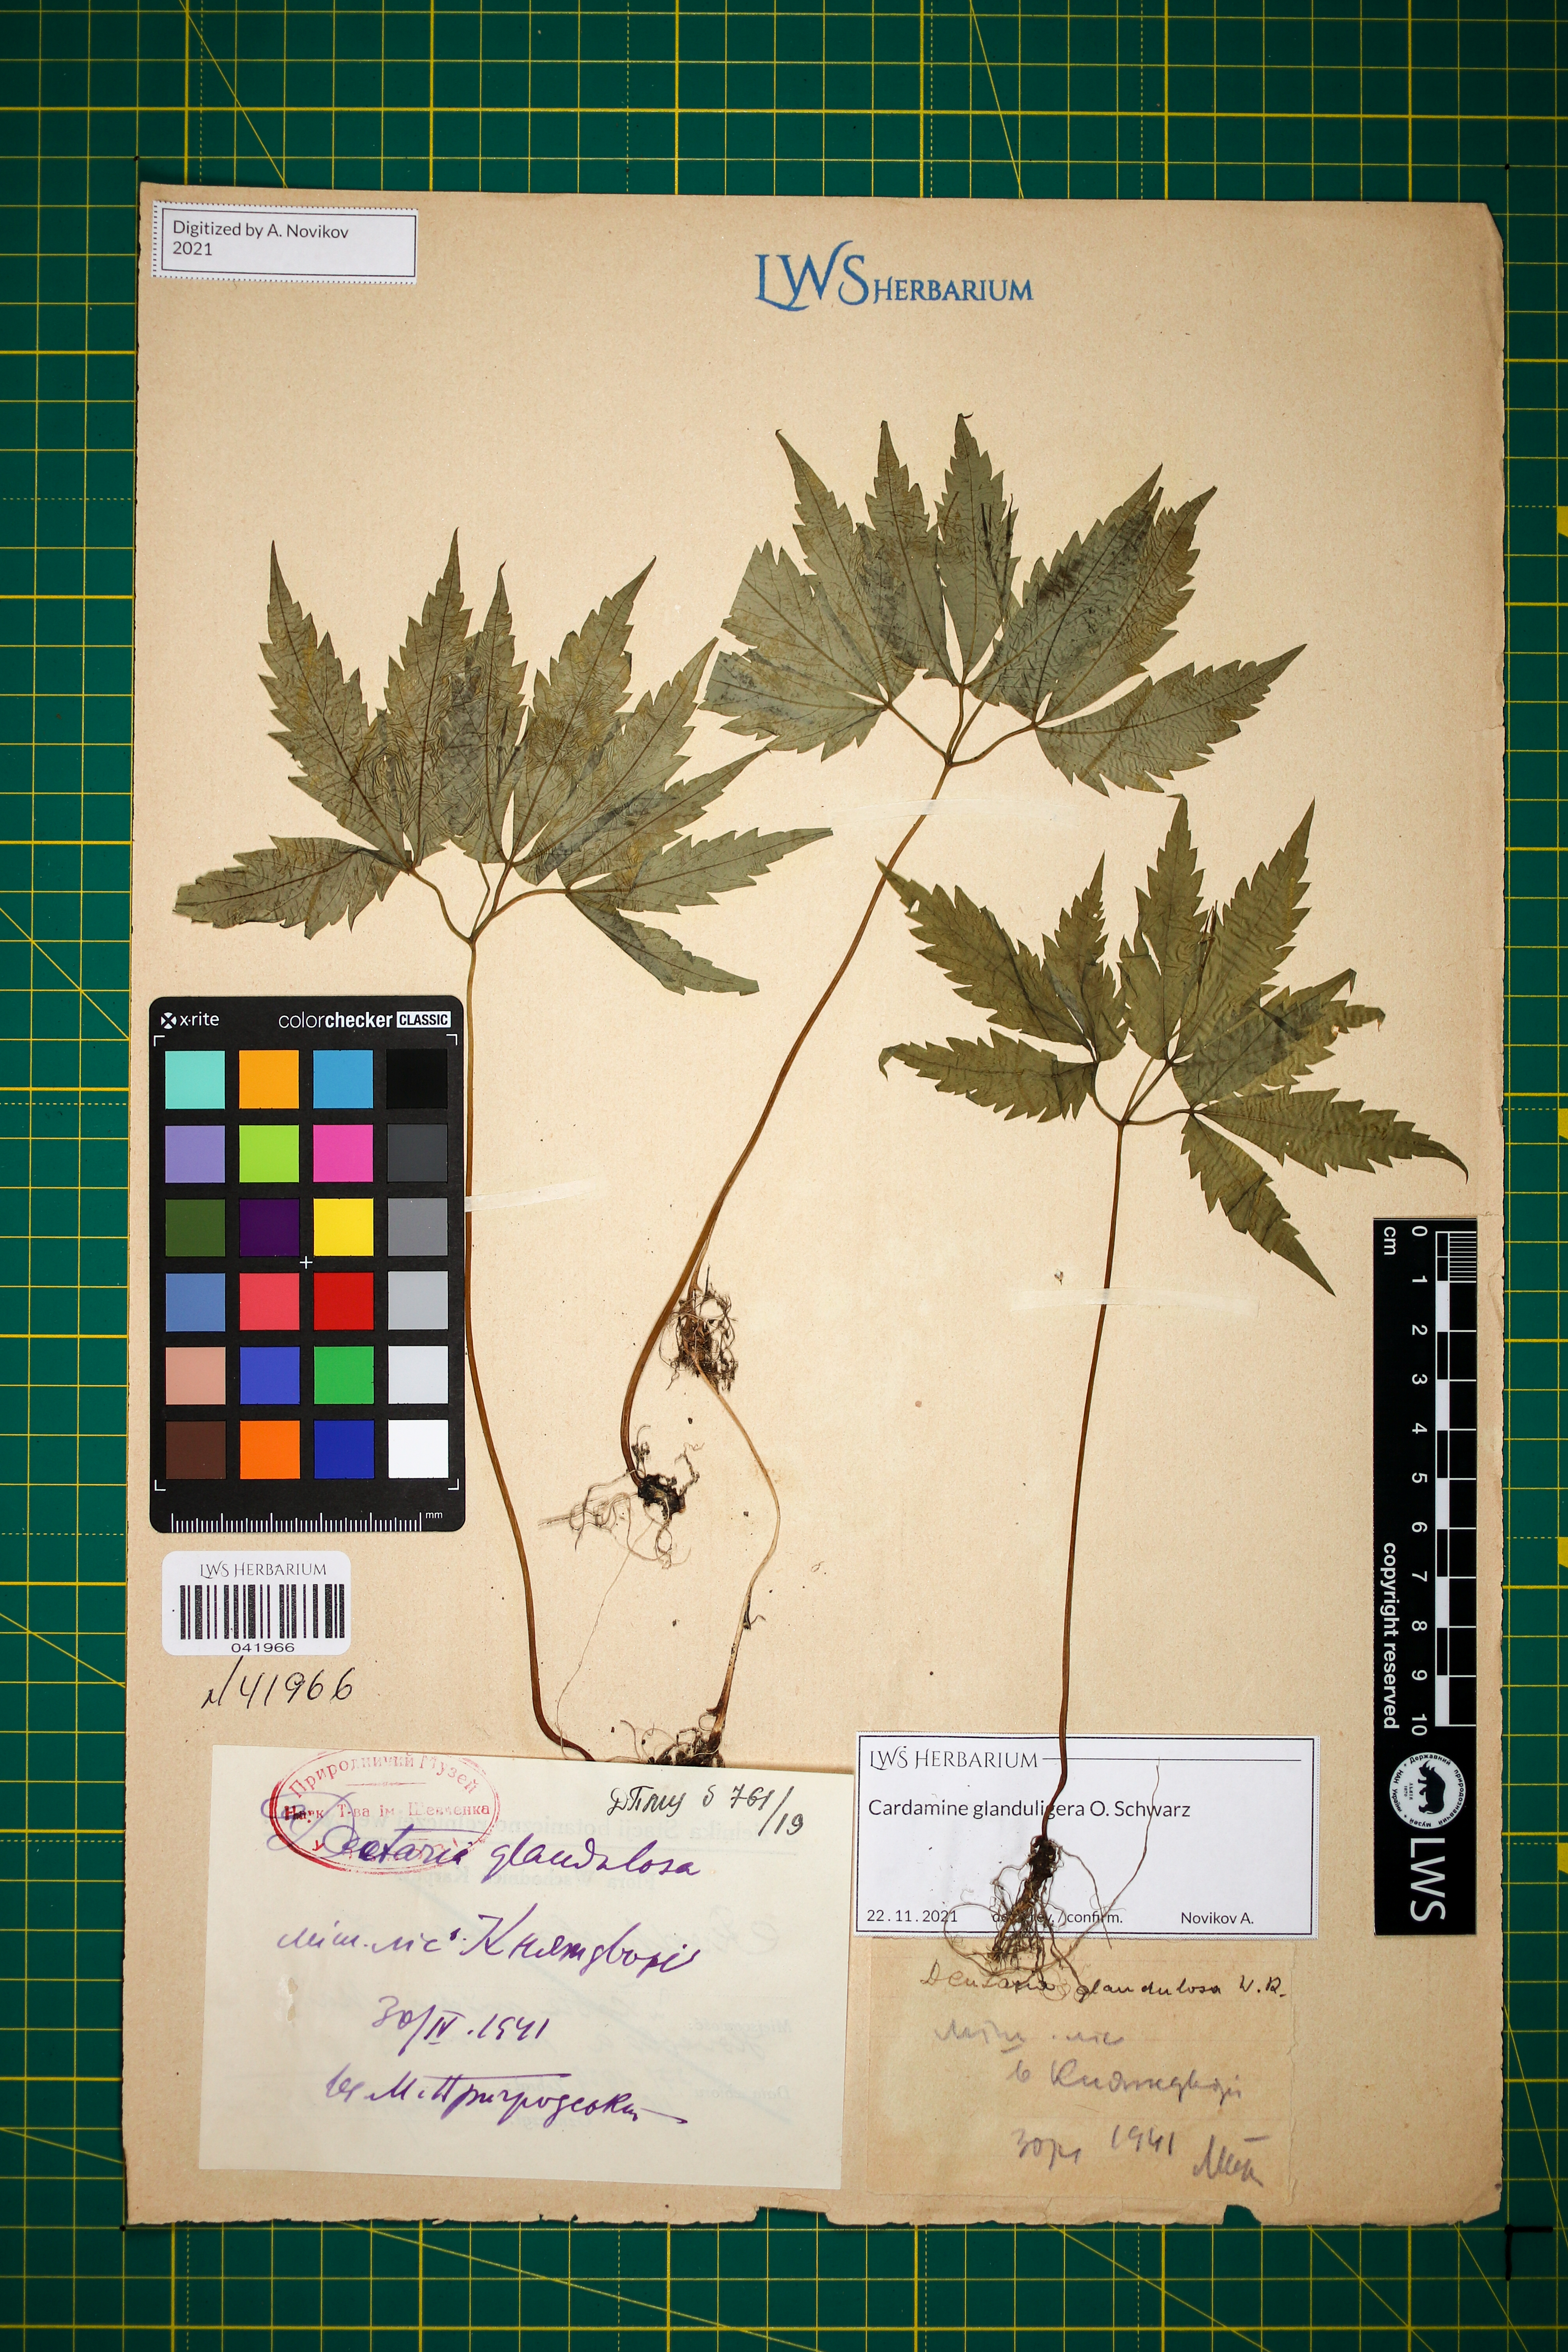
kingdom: Plantae
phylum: Tracheophyta
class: Magnoliopsida
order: Brassicales
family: Brassicaceae
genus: Cardamine
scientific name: Cardamine glanduligera
